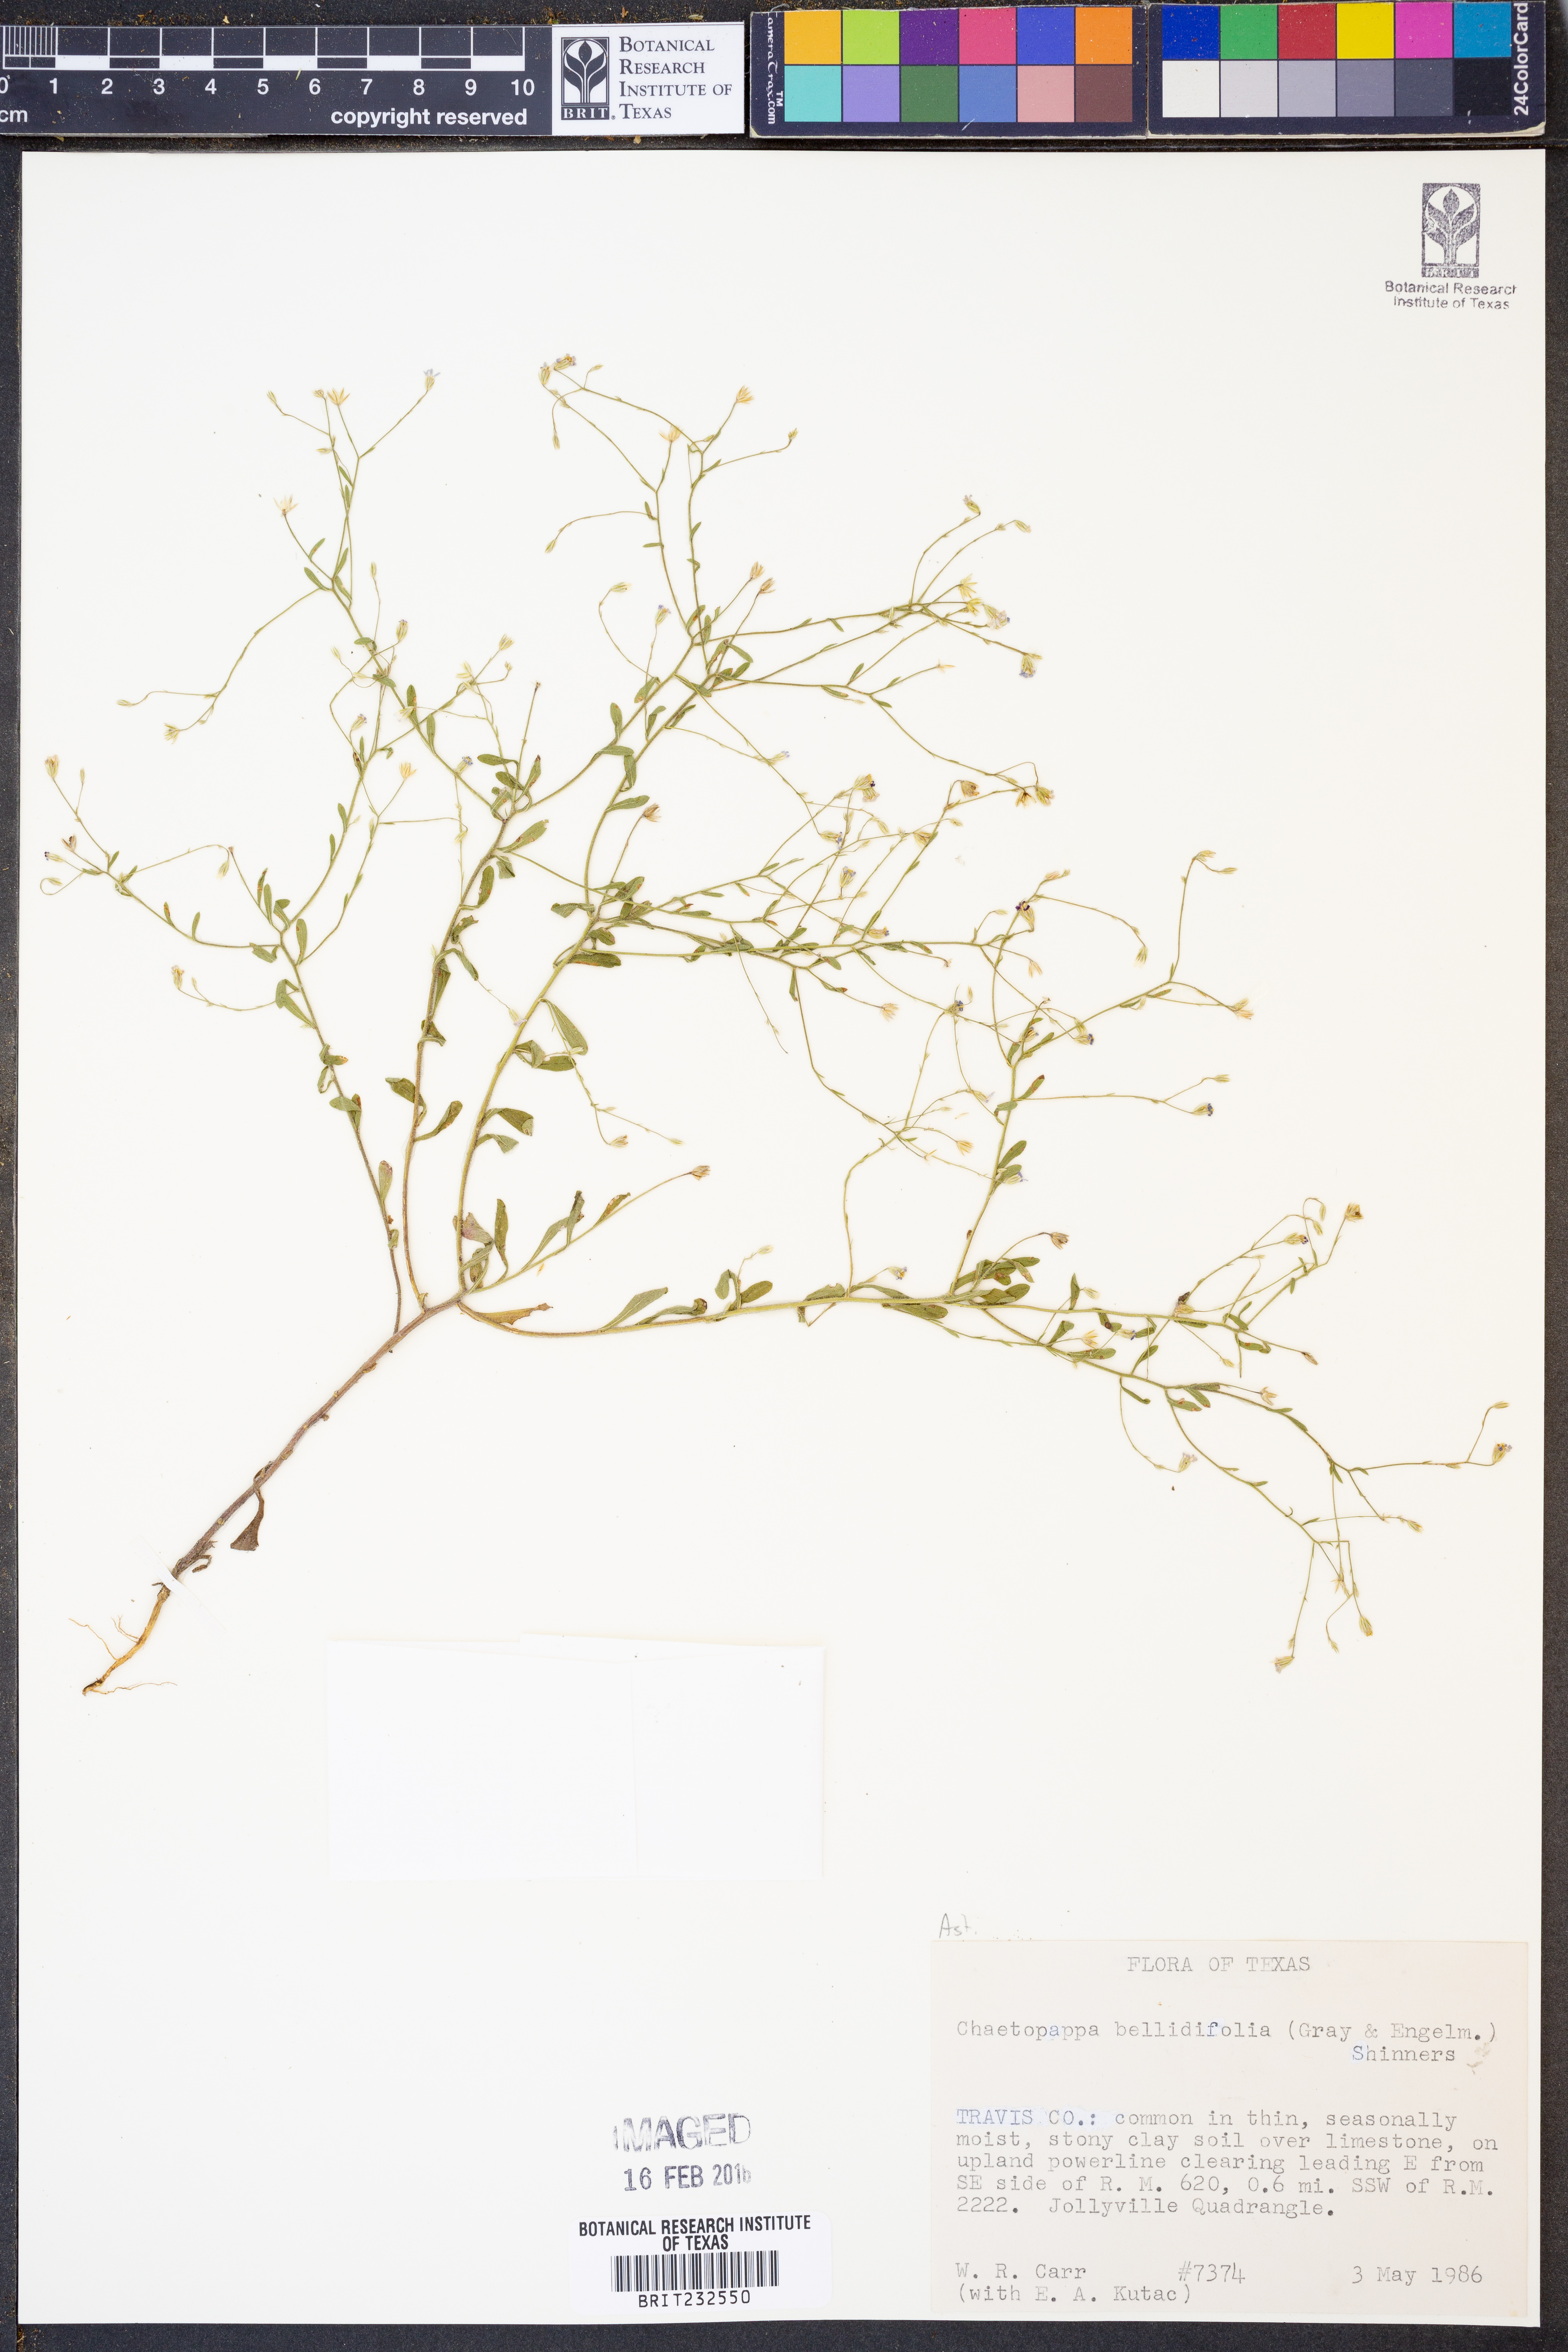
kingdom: Plantae
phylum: Tracheophyta
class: Magnoliopsida
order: Asterales
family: Asteraceae
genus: Chaetopappa
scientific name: Chaetopappa bellidifolia
